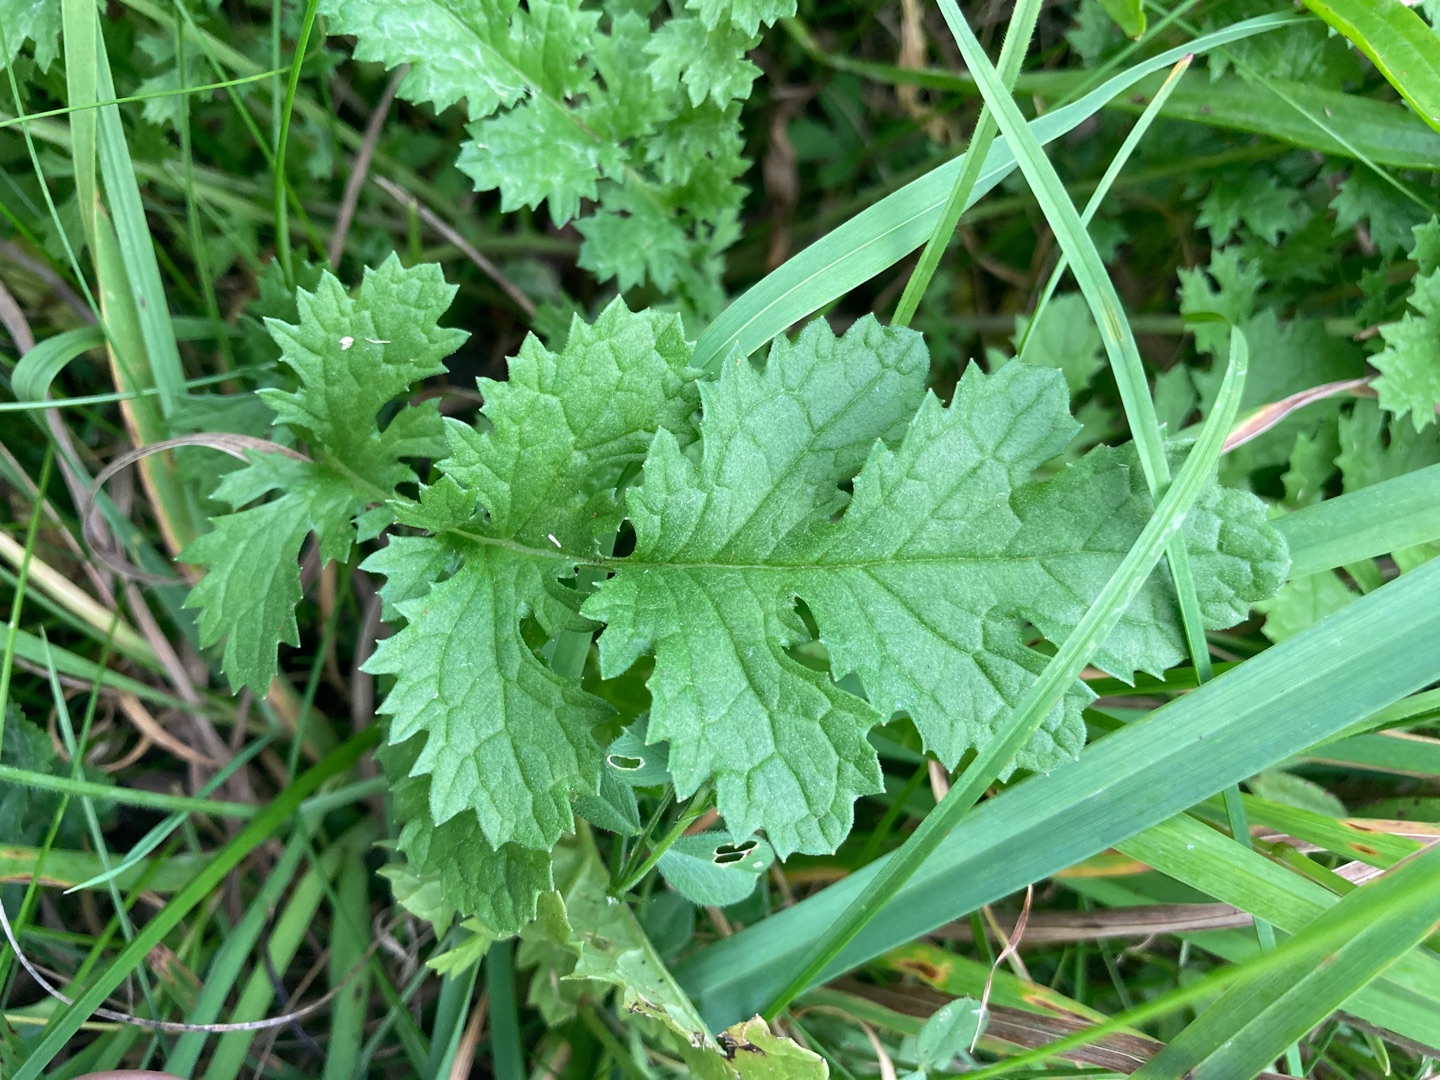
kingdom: Plantae
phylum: Tracheophyta
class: Magnoliopsida
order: Asterales
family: Asteraceae
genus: Jacobaea
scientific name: Jacobaea vulgaris
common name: Eng-brandbæger
